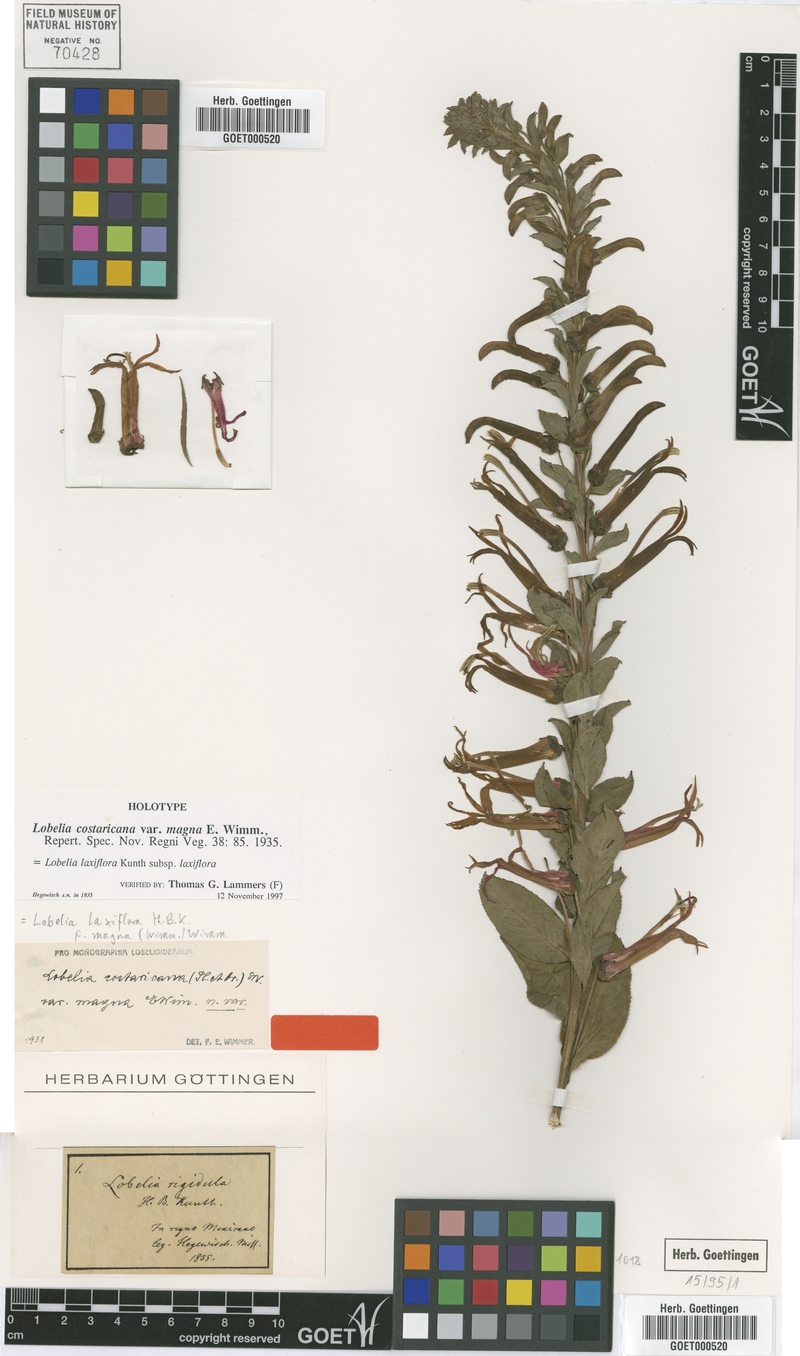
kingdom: Plantae
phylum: Tracheophyta
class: Magnoliopsida
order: Asterales
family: Campanulaceae
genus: Lobelia
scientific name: Lobelia laxiflora
